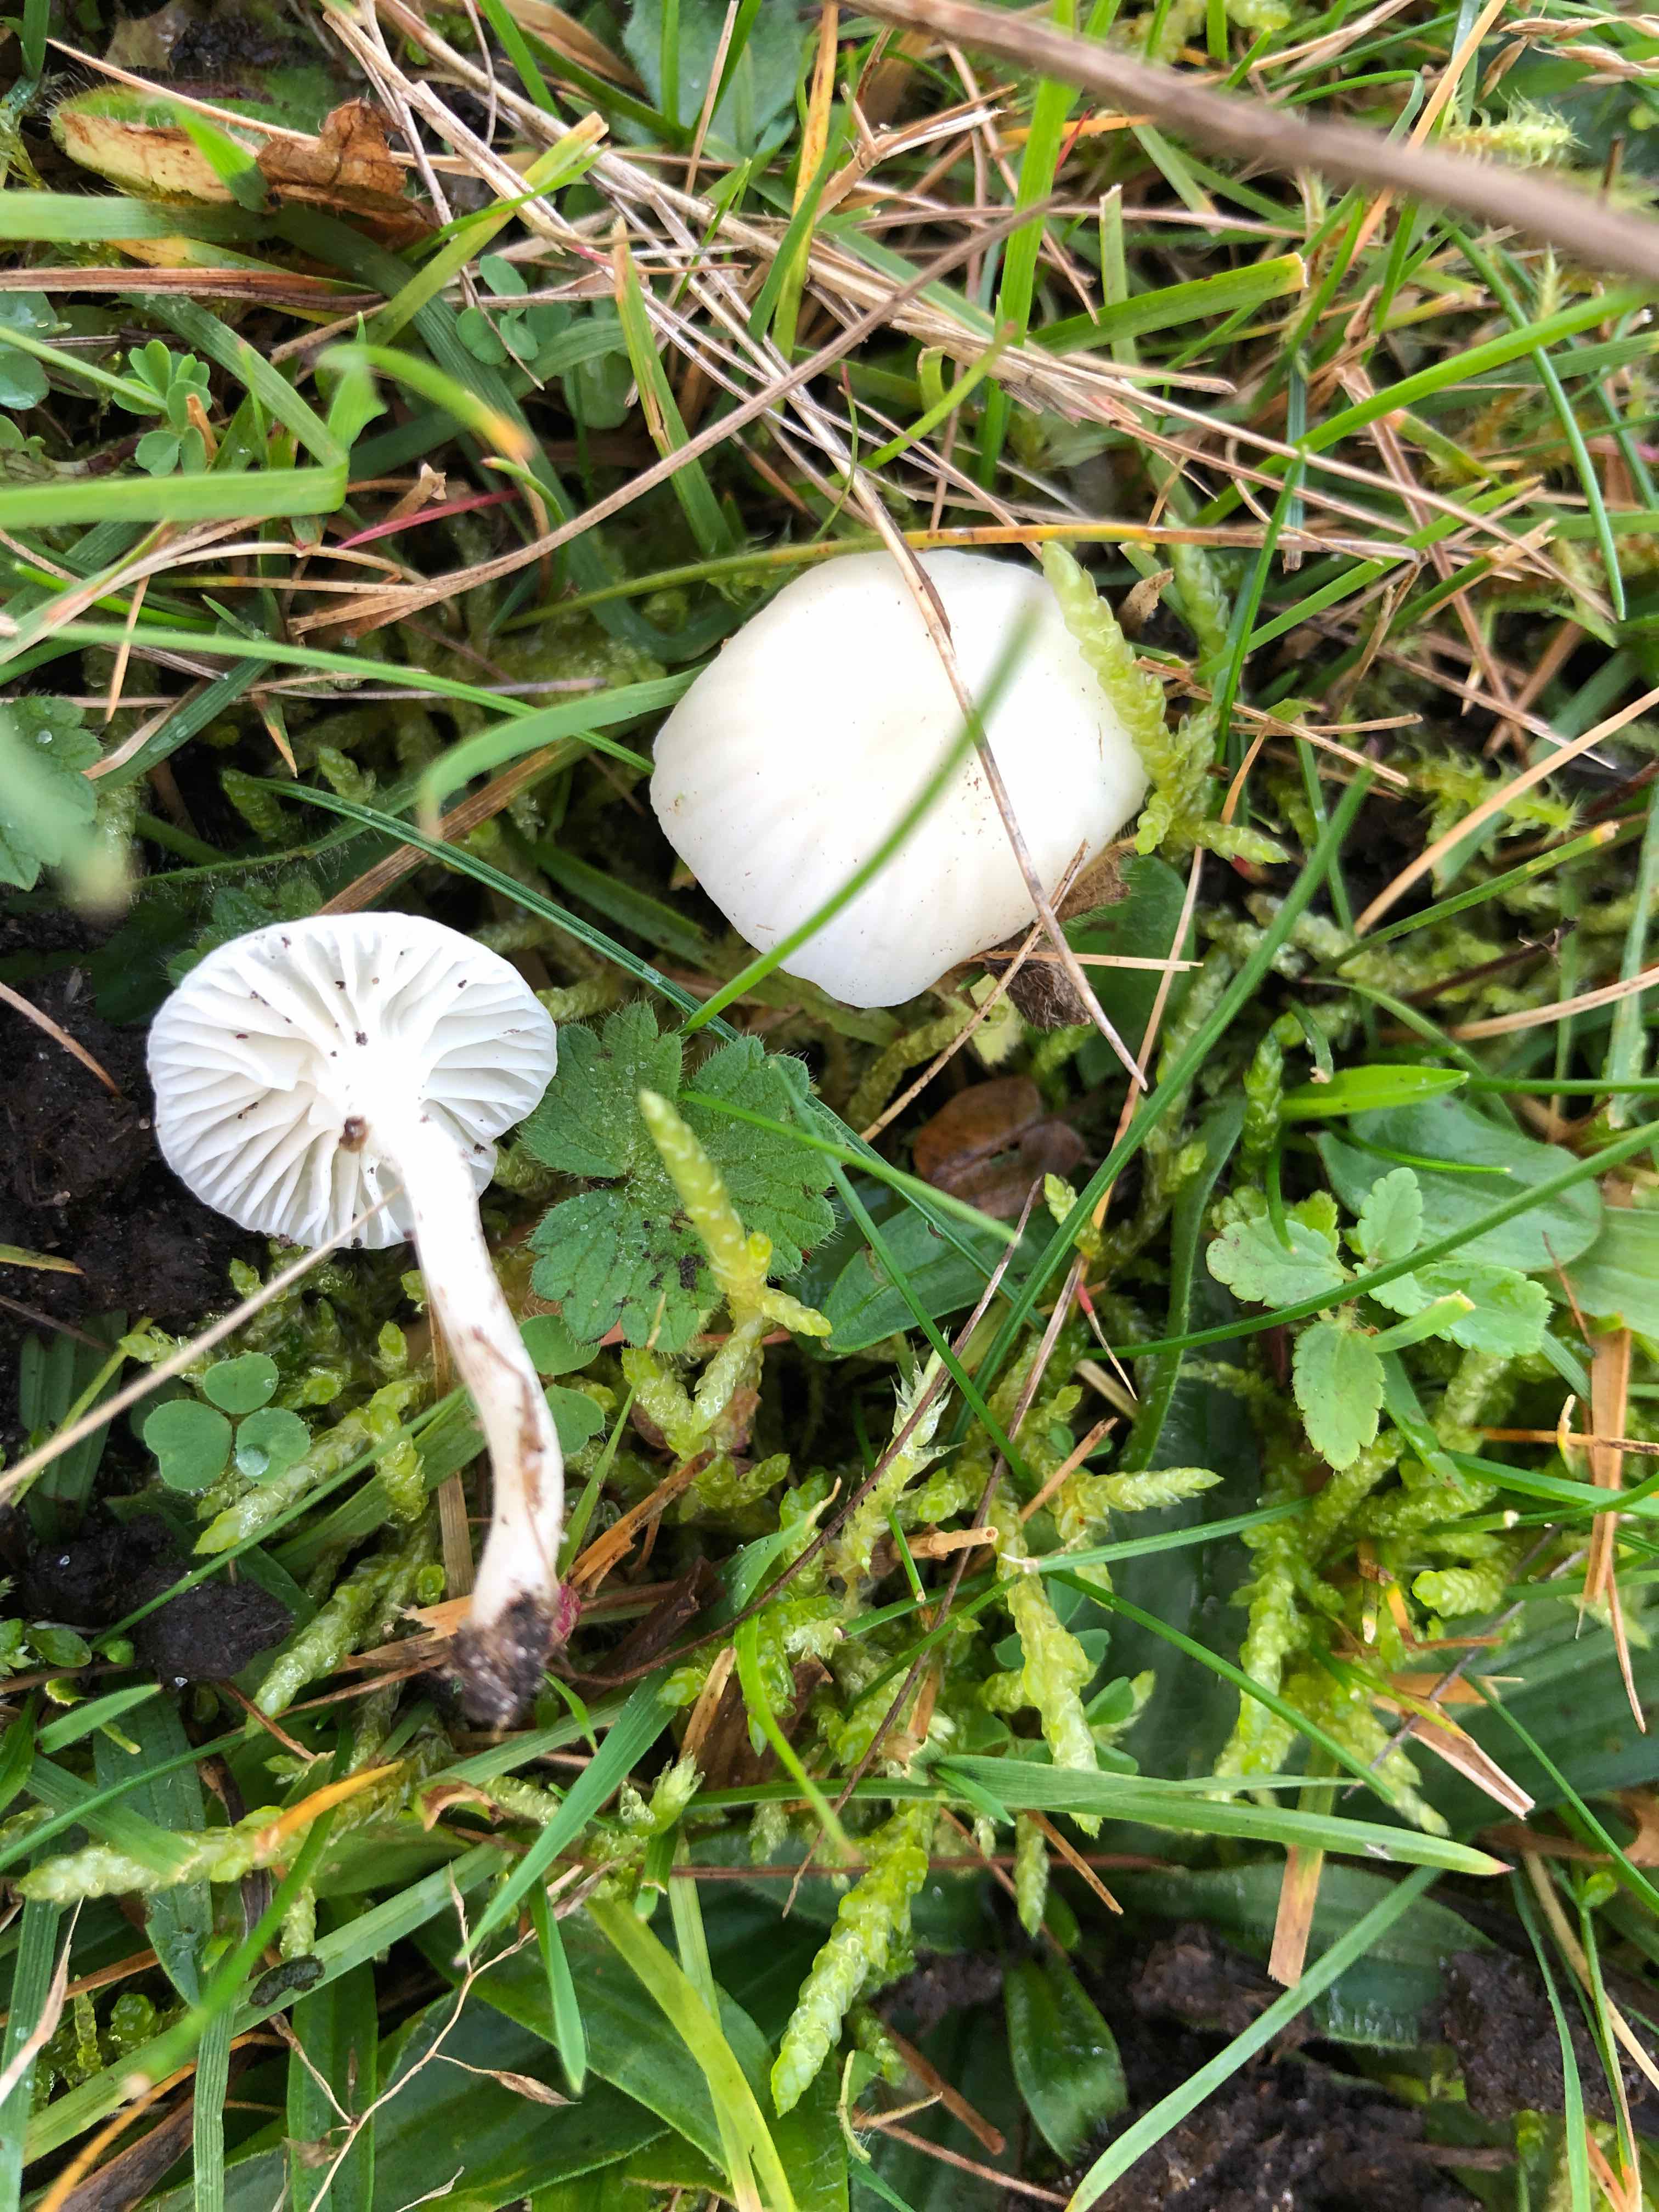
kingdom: Fungi
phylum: Basidiomycota
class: Agaricomycetes
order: Agaricales
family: Hygrophoraceae
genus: Cuphophyllus
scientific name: Cuphophyllus virgineus
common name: snehvid vokshat
